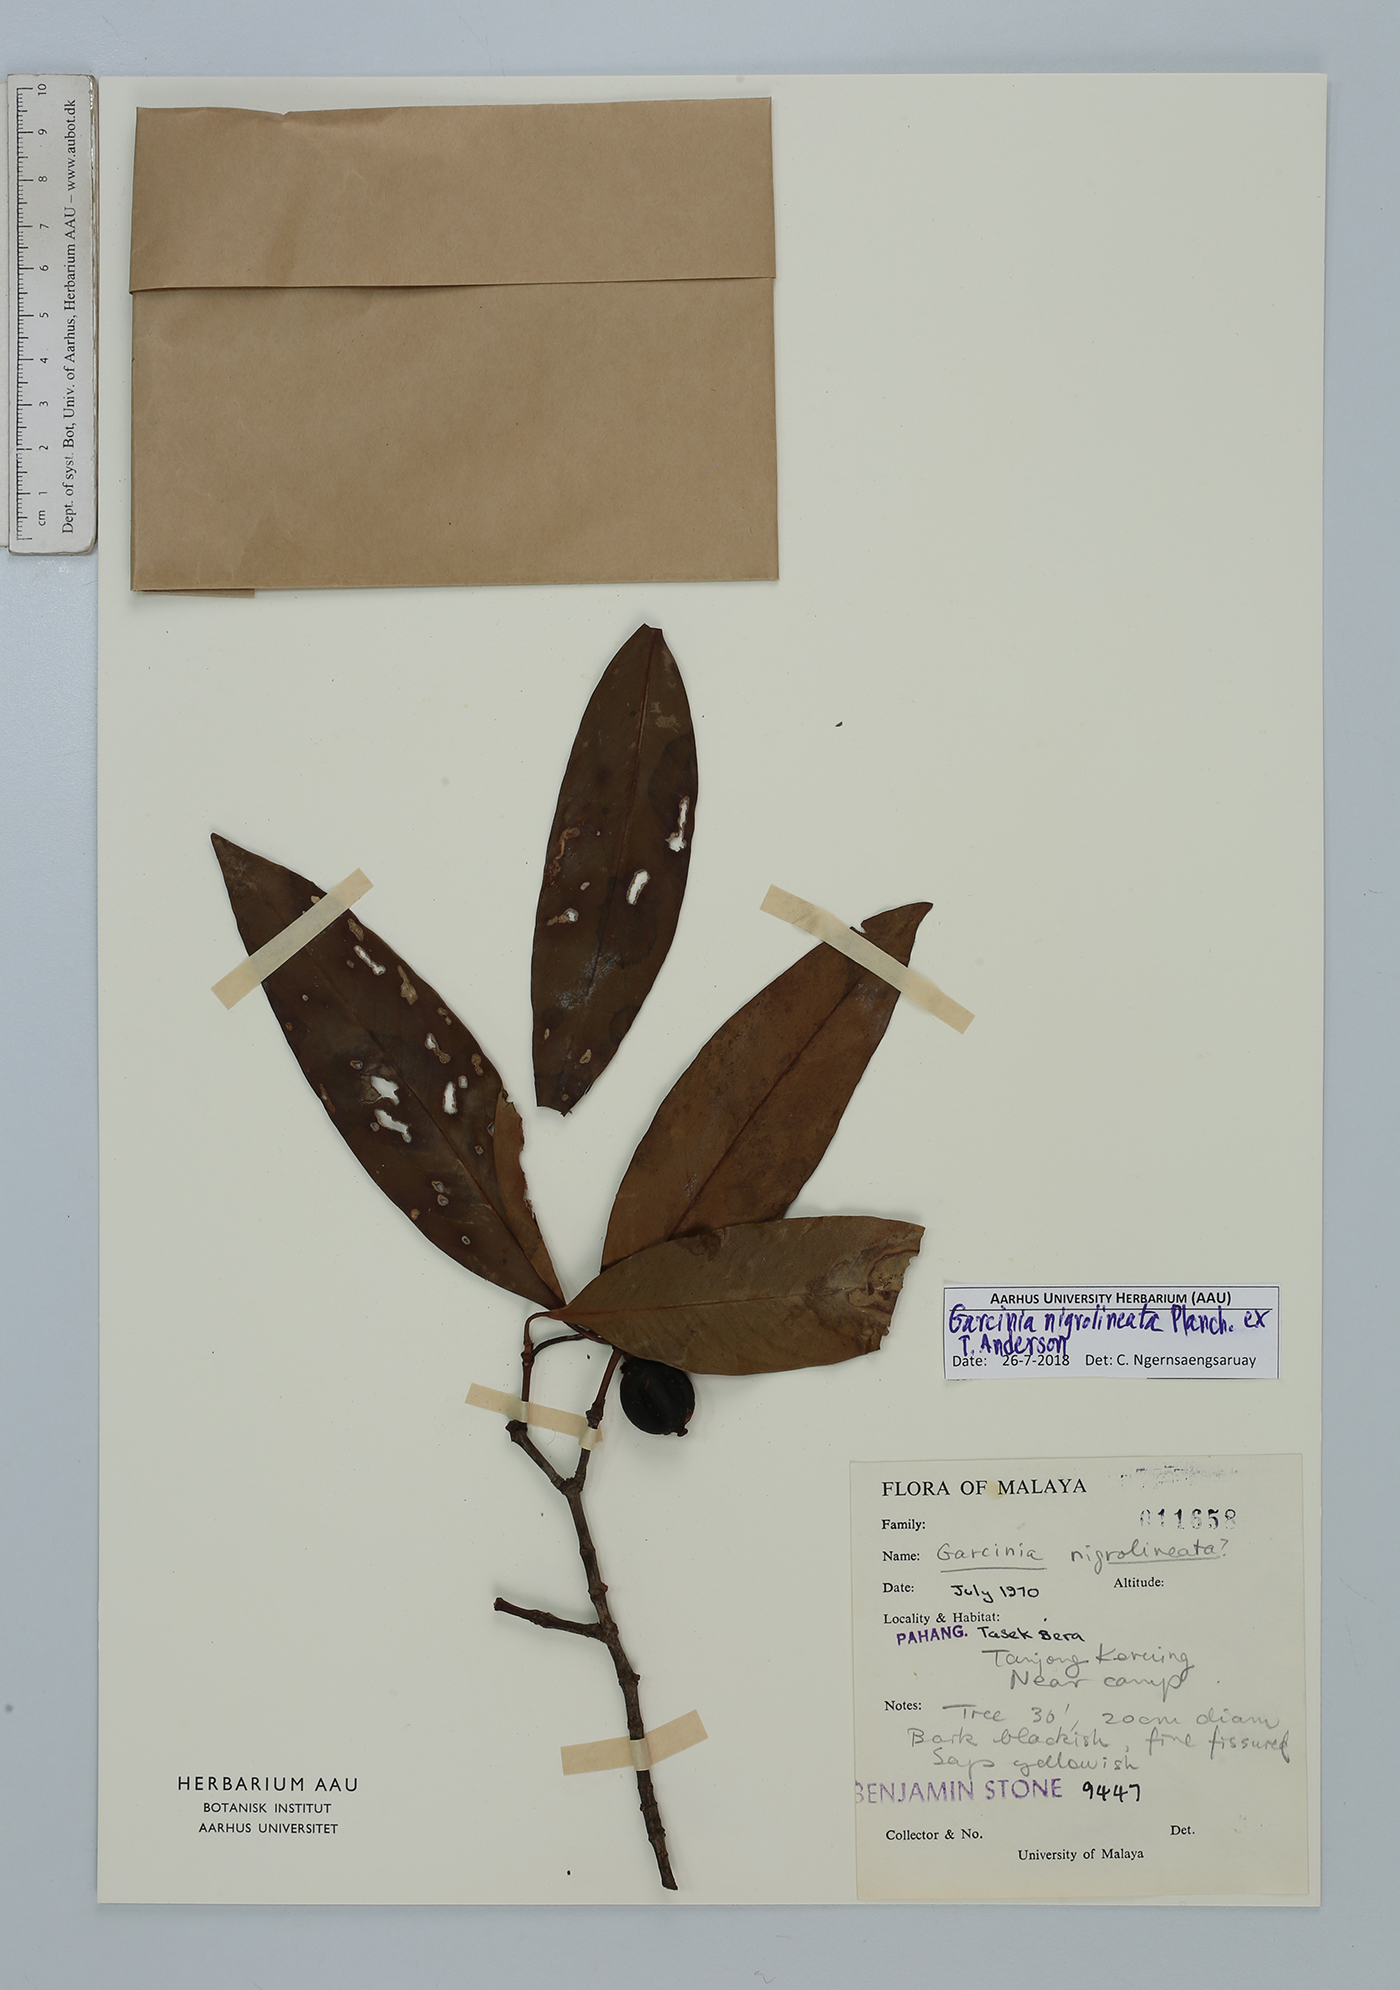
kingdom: Plantae
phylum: Tracheophyta
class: Magnoliopsida
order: Malpighiales
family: Clusiaceae
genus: Garcinia
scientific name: Garcinia nigrolineata
